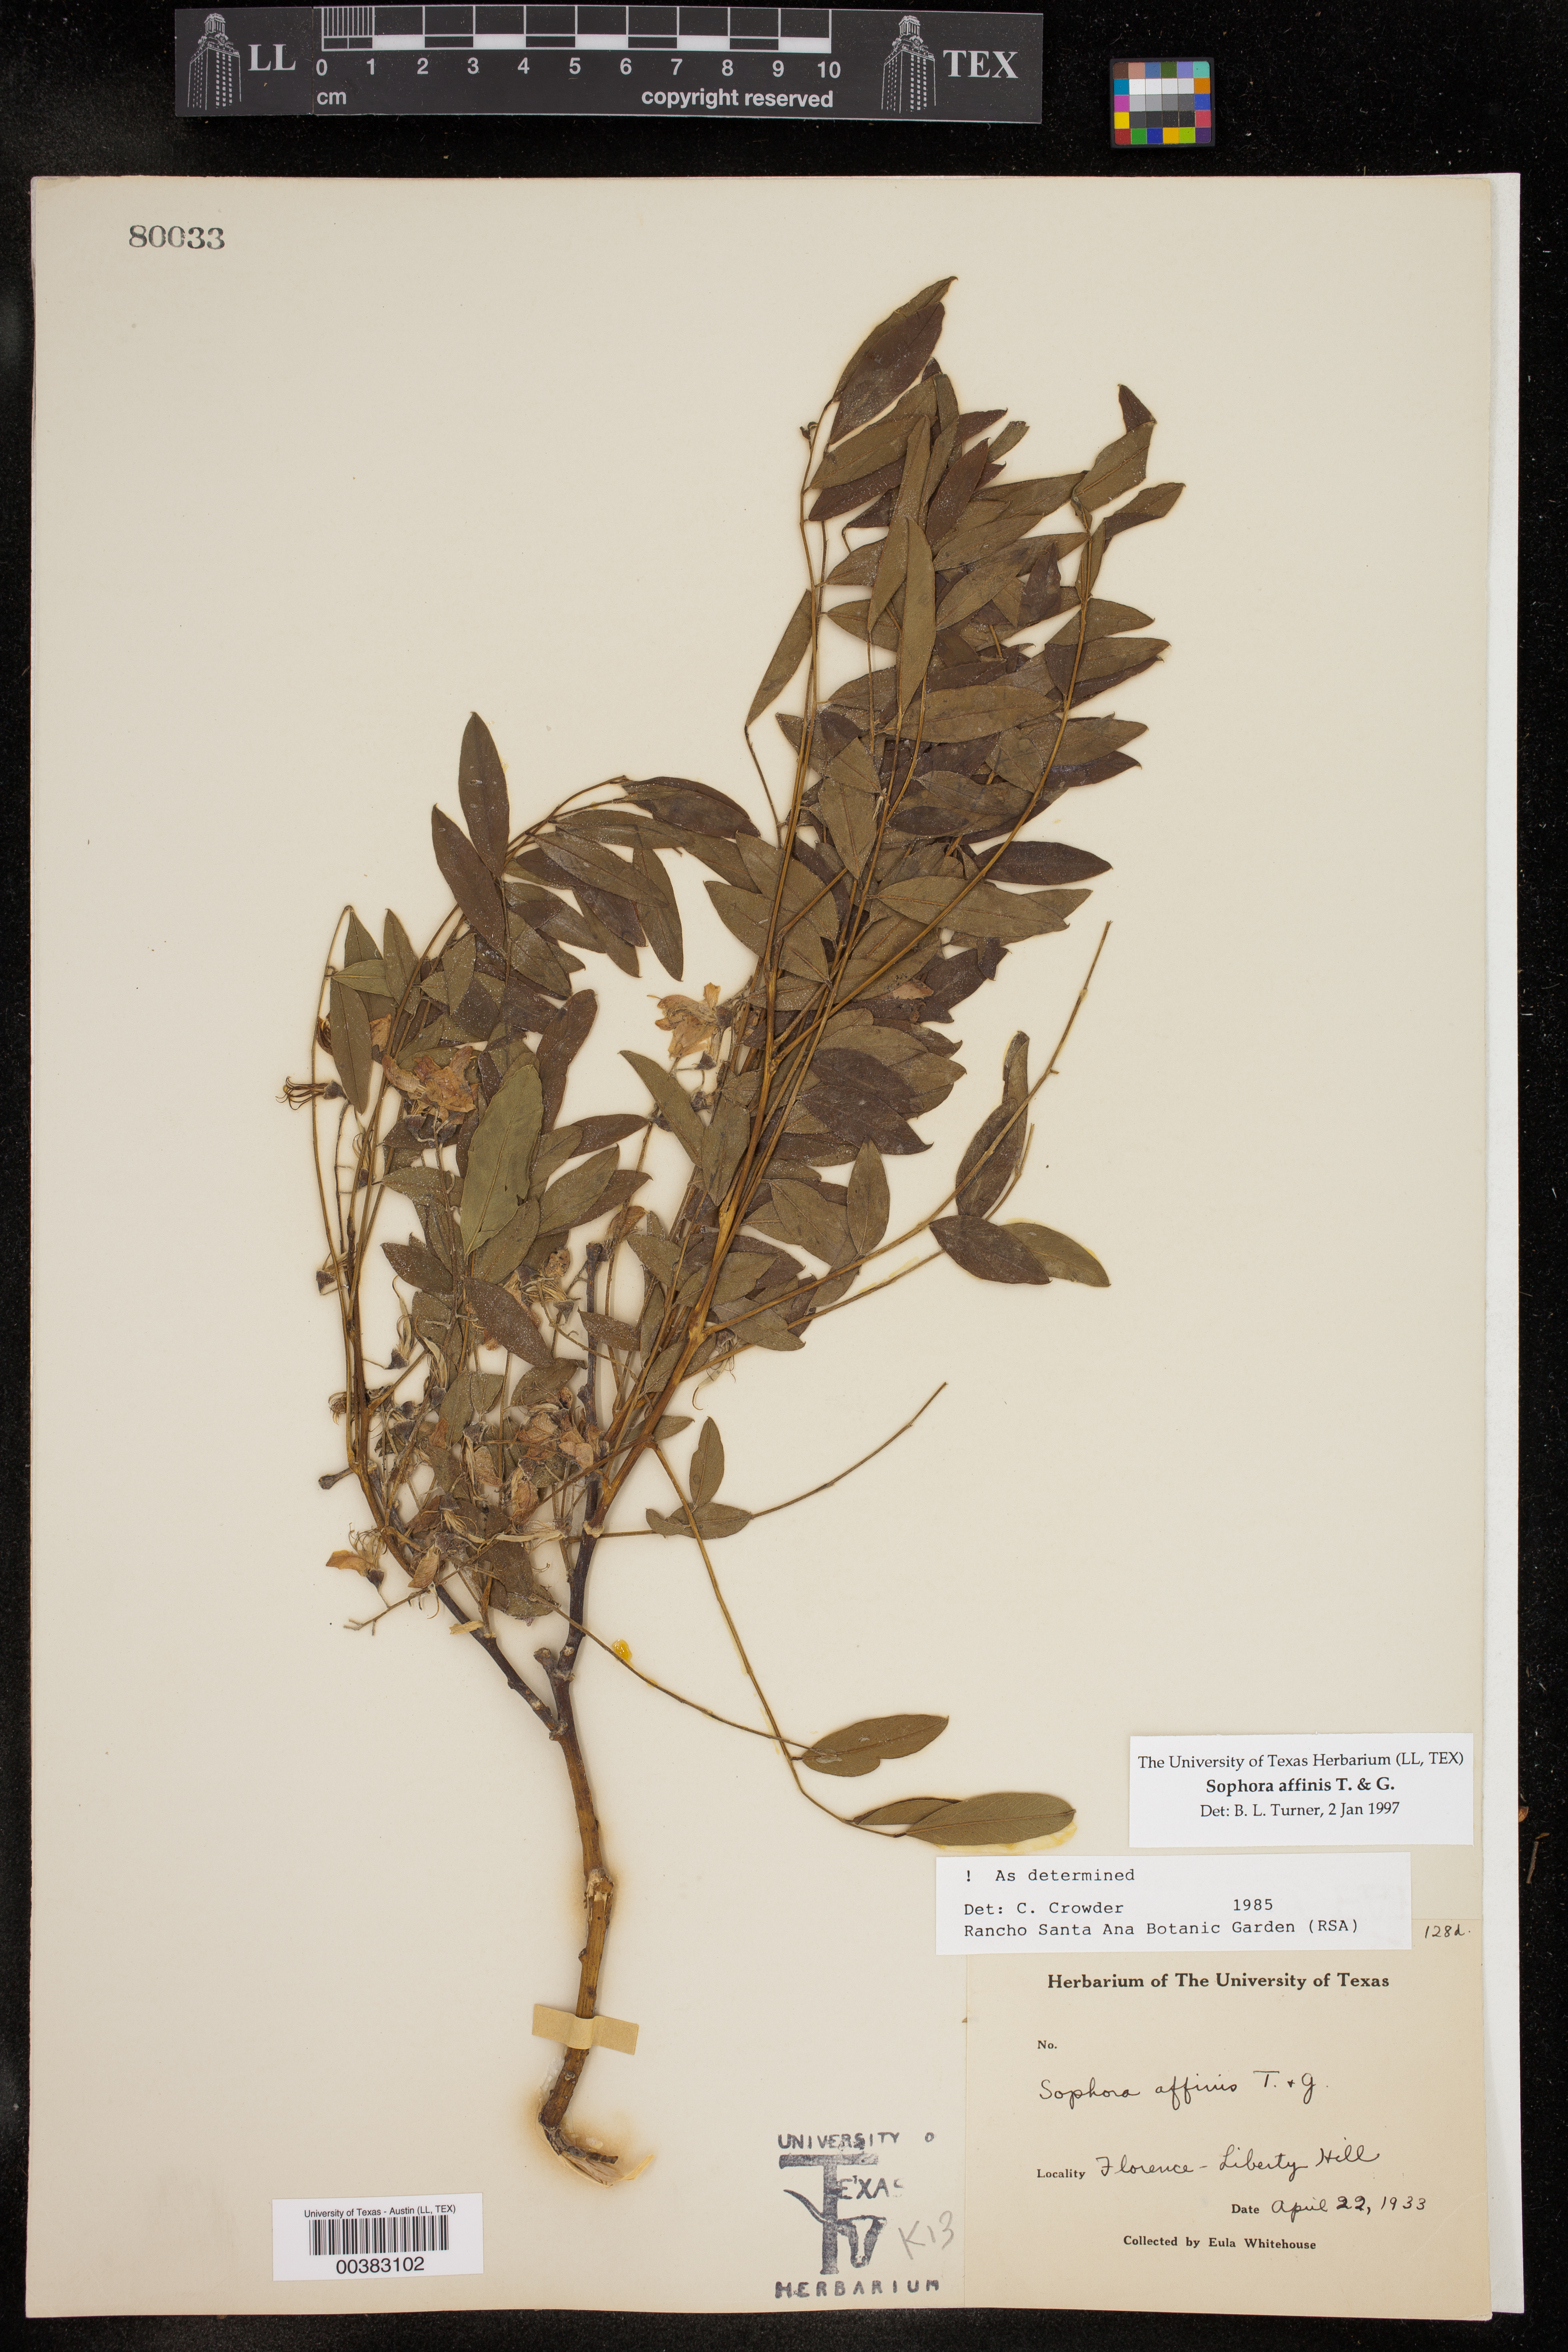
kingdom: Plantae
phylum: Tracheophyta
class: Magnoliopsida
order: Fabales
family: Fabaceae
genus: Styphnolobium
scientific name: Styphnolobium affine
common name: Texas sophora
